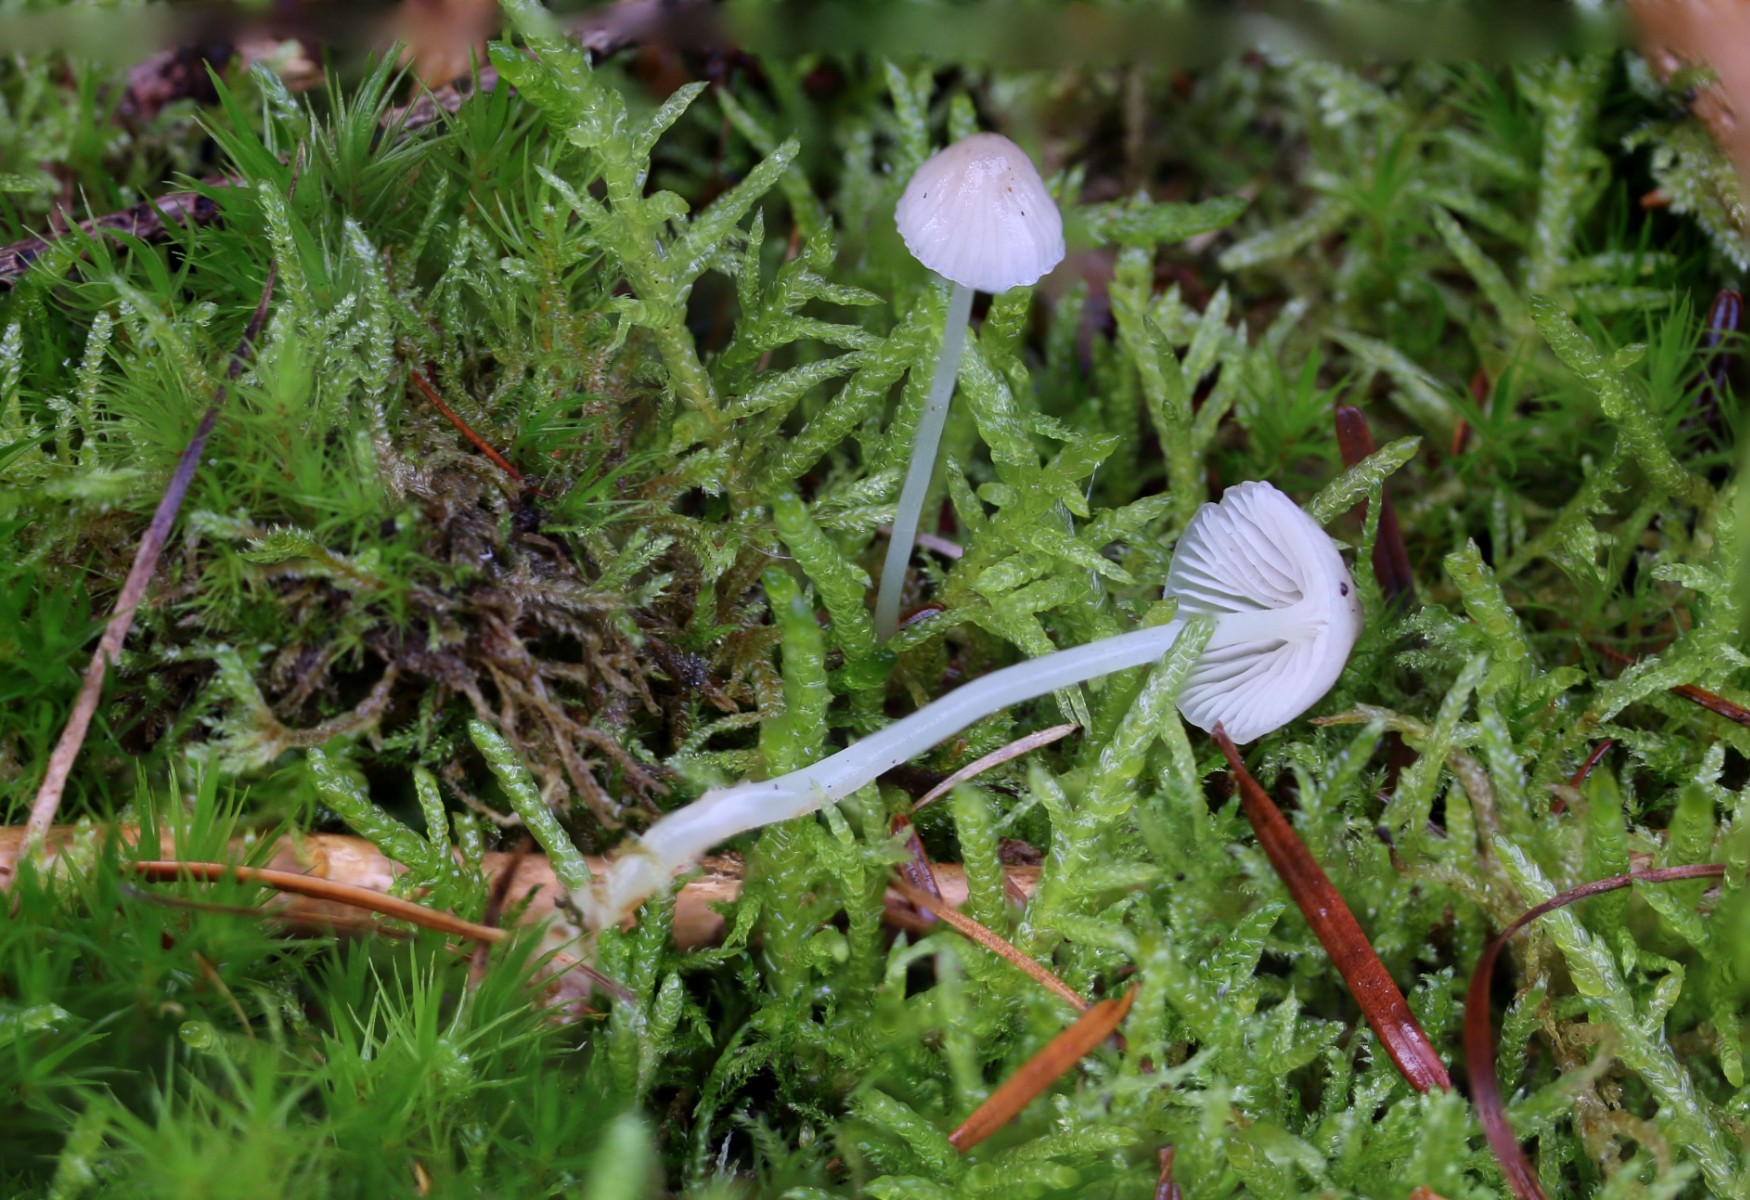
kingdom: Fungi
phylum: Basidiomycota
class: Agaricomycetes
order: Agaricales
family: Mycenaceae
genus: Mycena
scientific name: Mycena
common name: huesvamp
